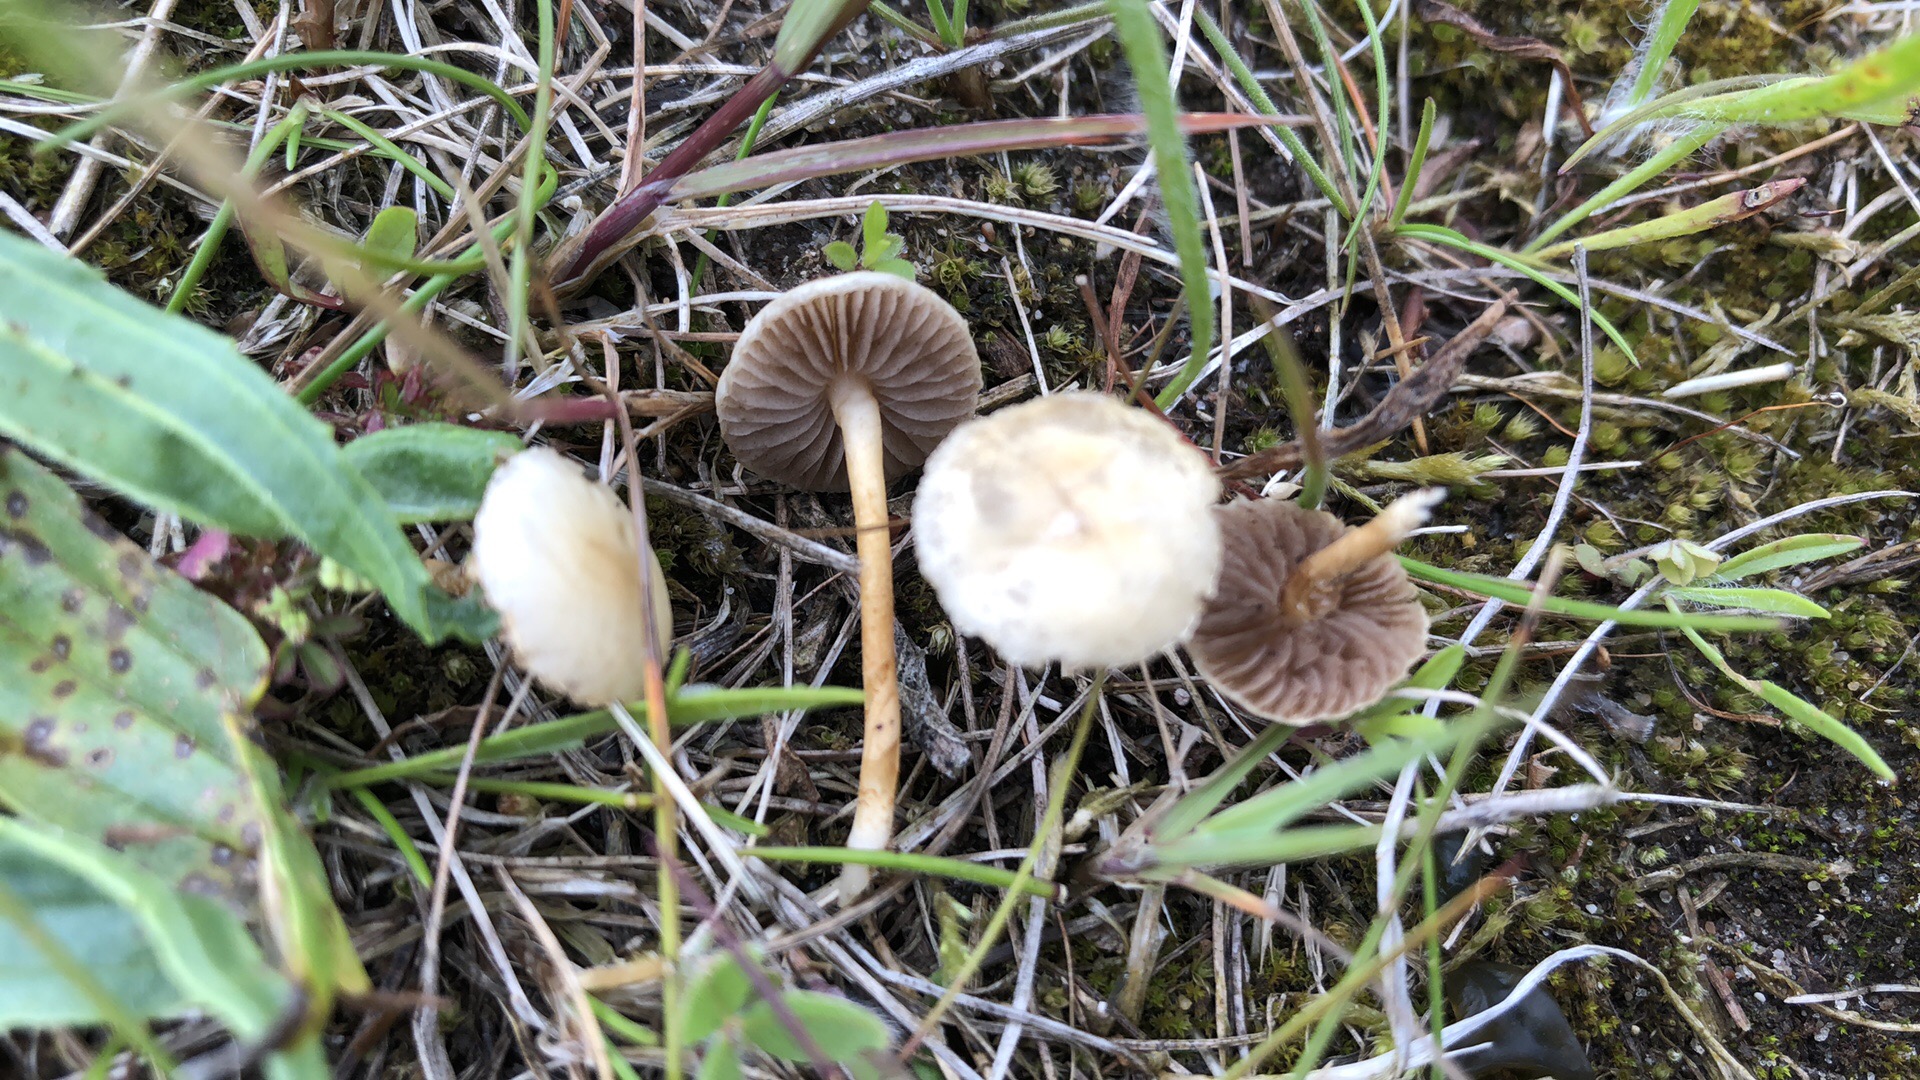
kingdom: Fungi
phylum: Basidiomycota
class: Agaricomycetes
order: Agaricales
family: Strophariaceae
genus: Agrocybe
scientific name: Agrocybe
